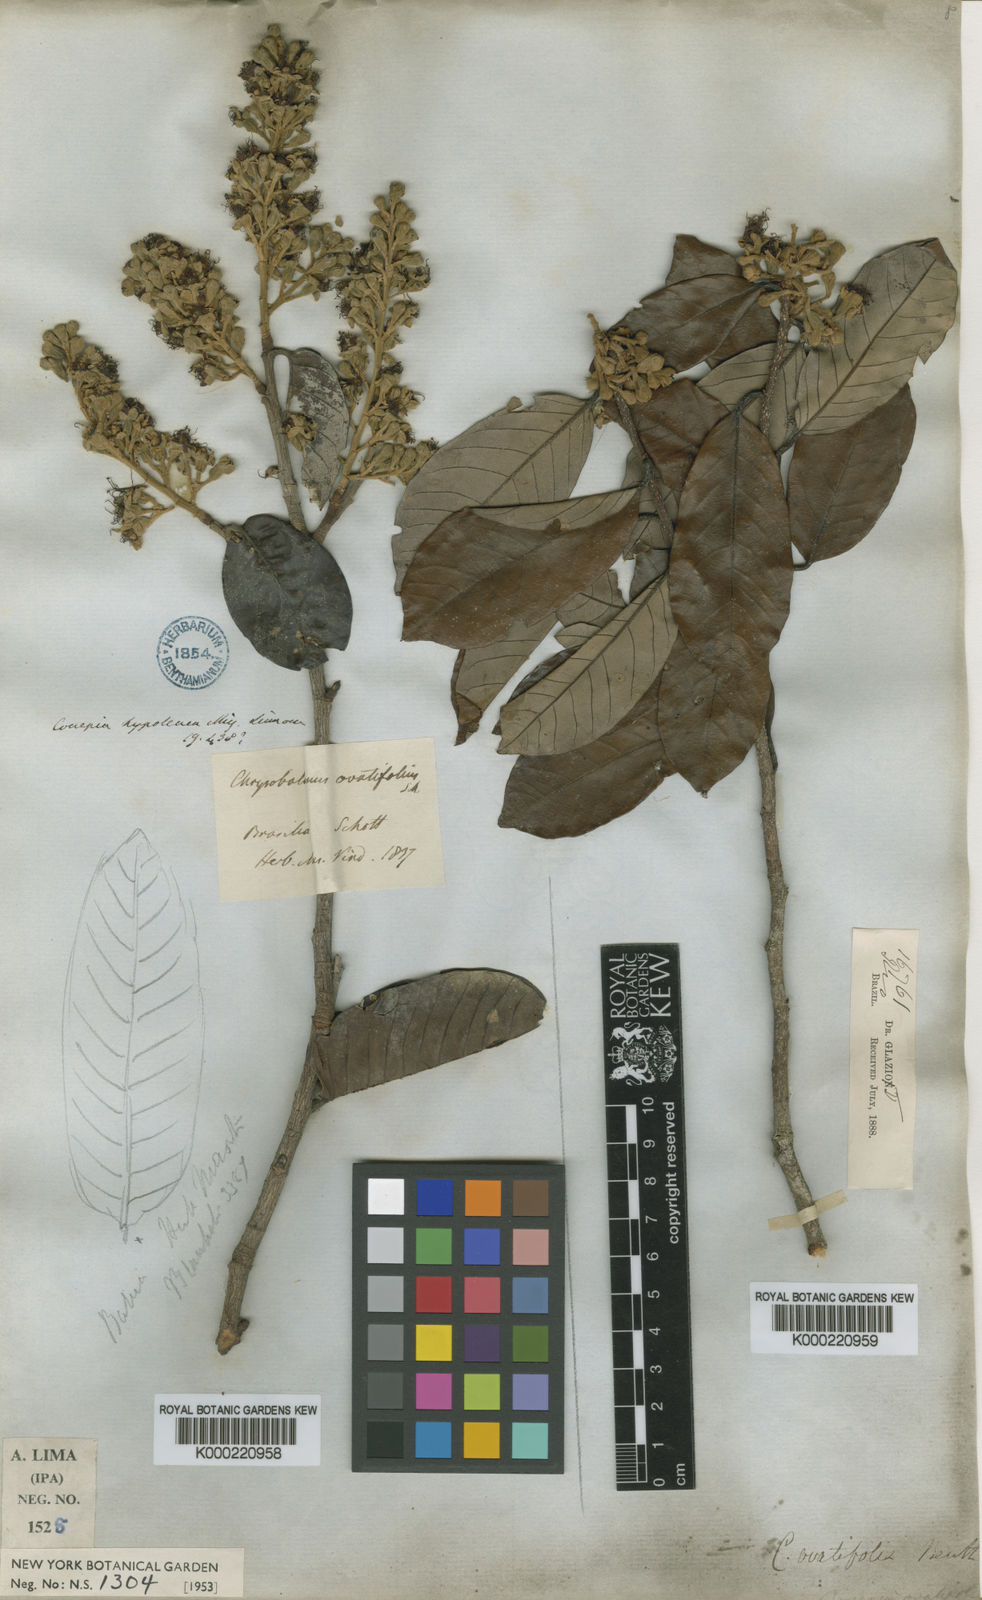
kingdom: Plantae
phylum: Tracheophyta
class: Magnoliopsida
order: Malpighiales
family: Chrysobalanaceae
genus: Couepia
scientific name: Couepia
